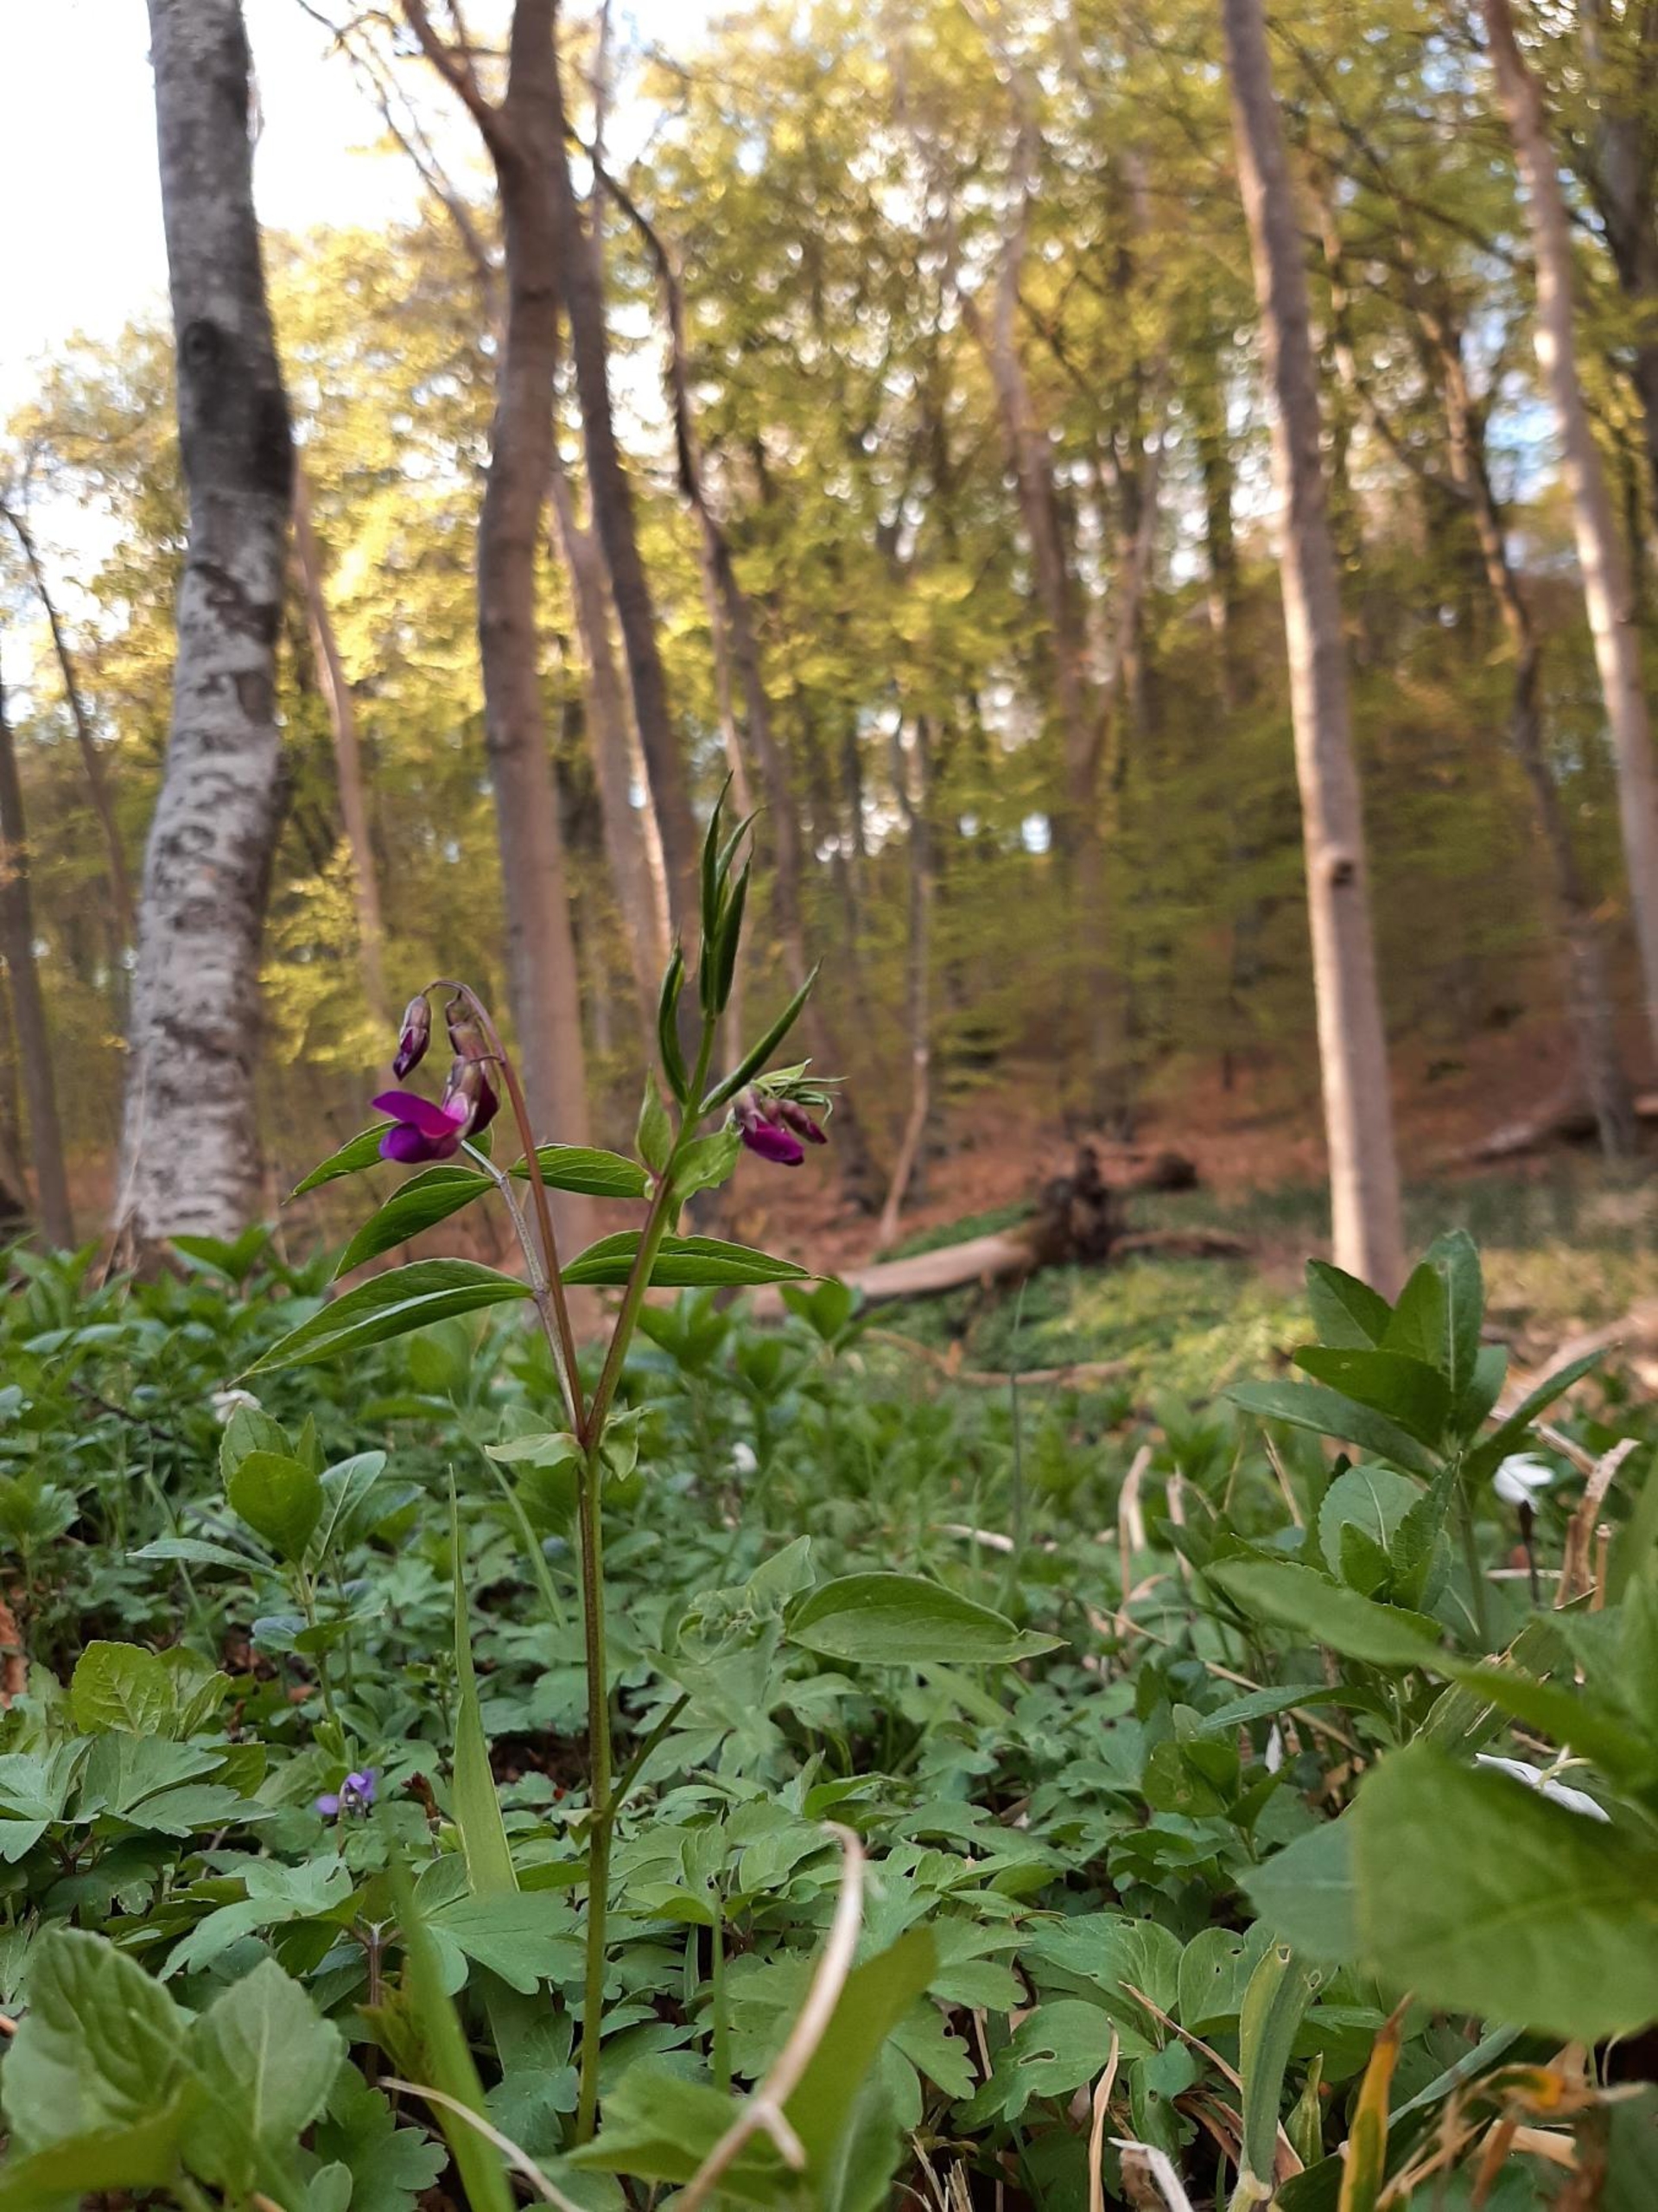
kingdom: Plantae
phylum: Tracheophyta
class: Magnoliopsida
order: Fabales
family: Fabaceae
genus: Lathyrus
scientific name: Lathyrus vernus
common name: Vår-fladbælg
